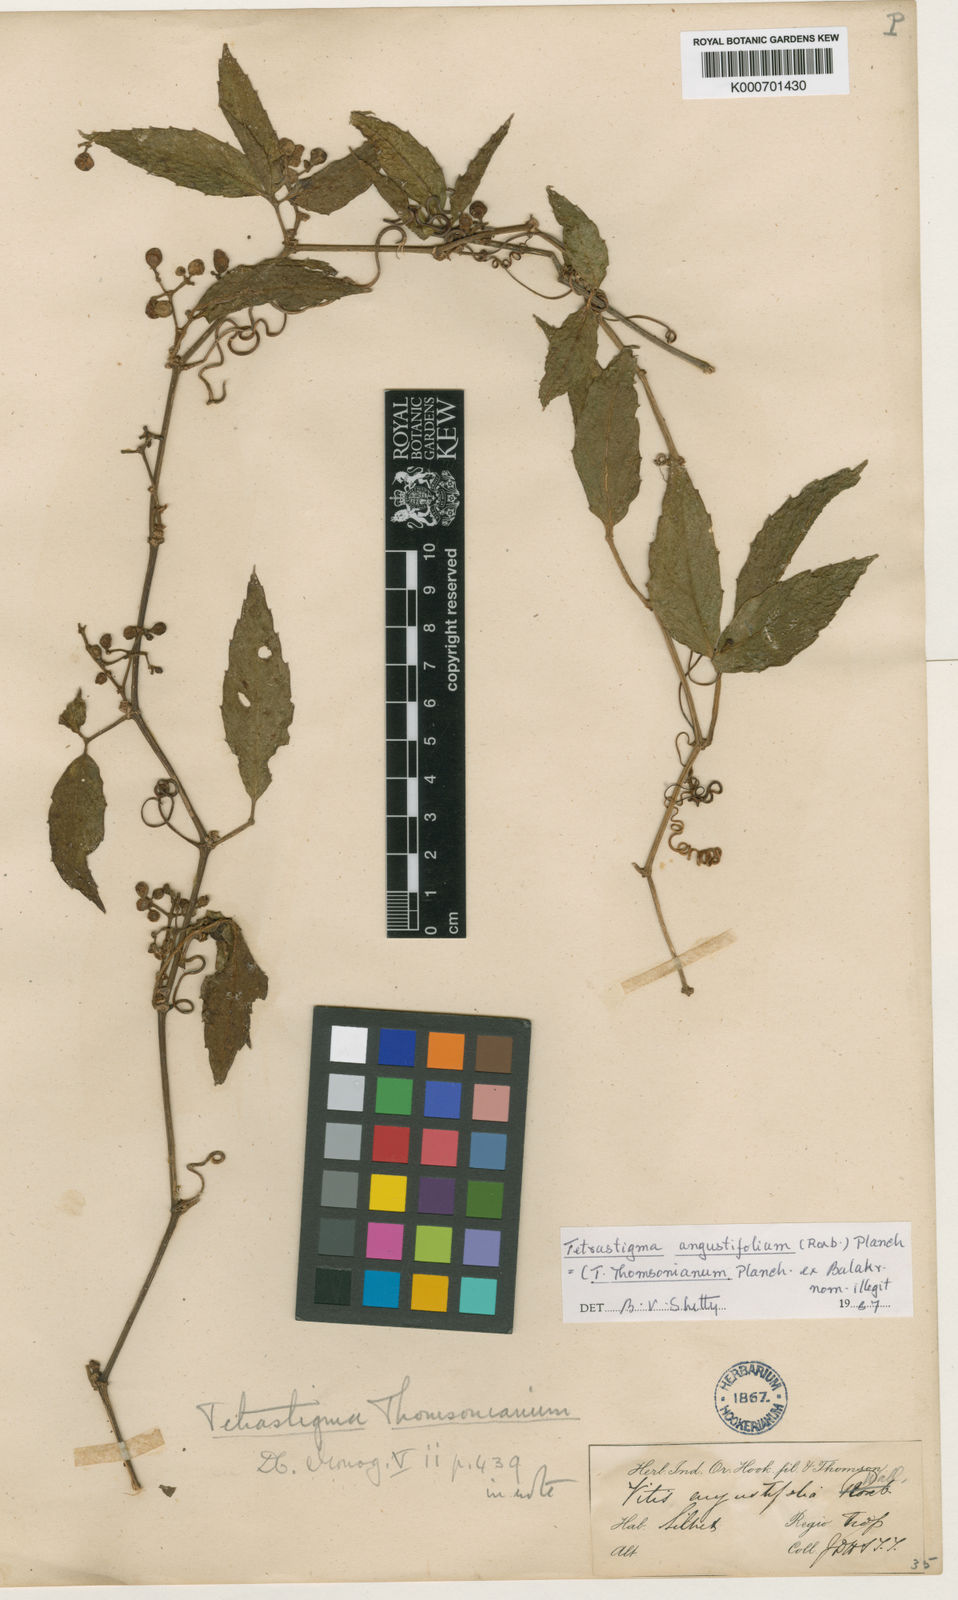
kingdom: Plantae
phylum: Tracheophyta
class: Magnoliopsida
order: Vitales
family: Vitaceae
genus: Tetrastigma
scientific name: Tetrastigma thomsonianum
